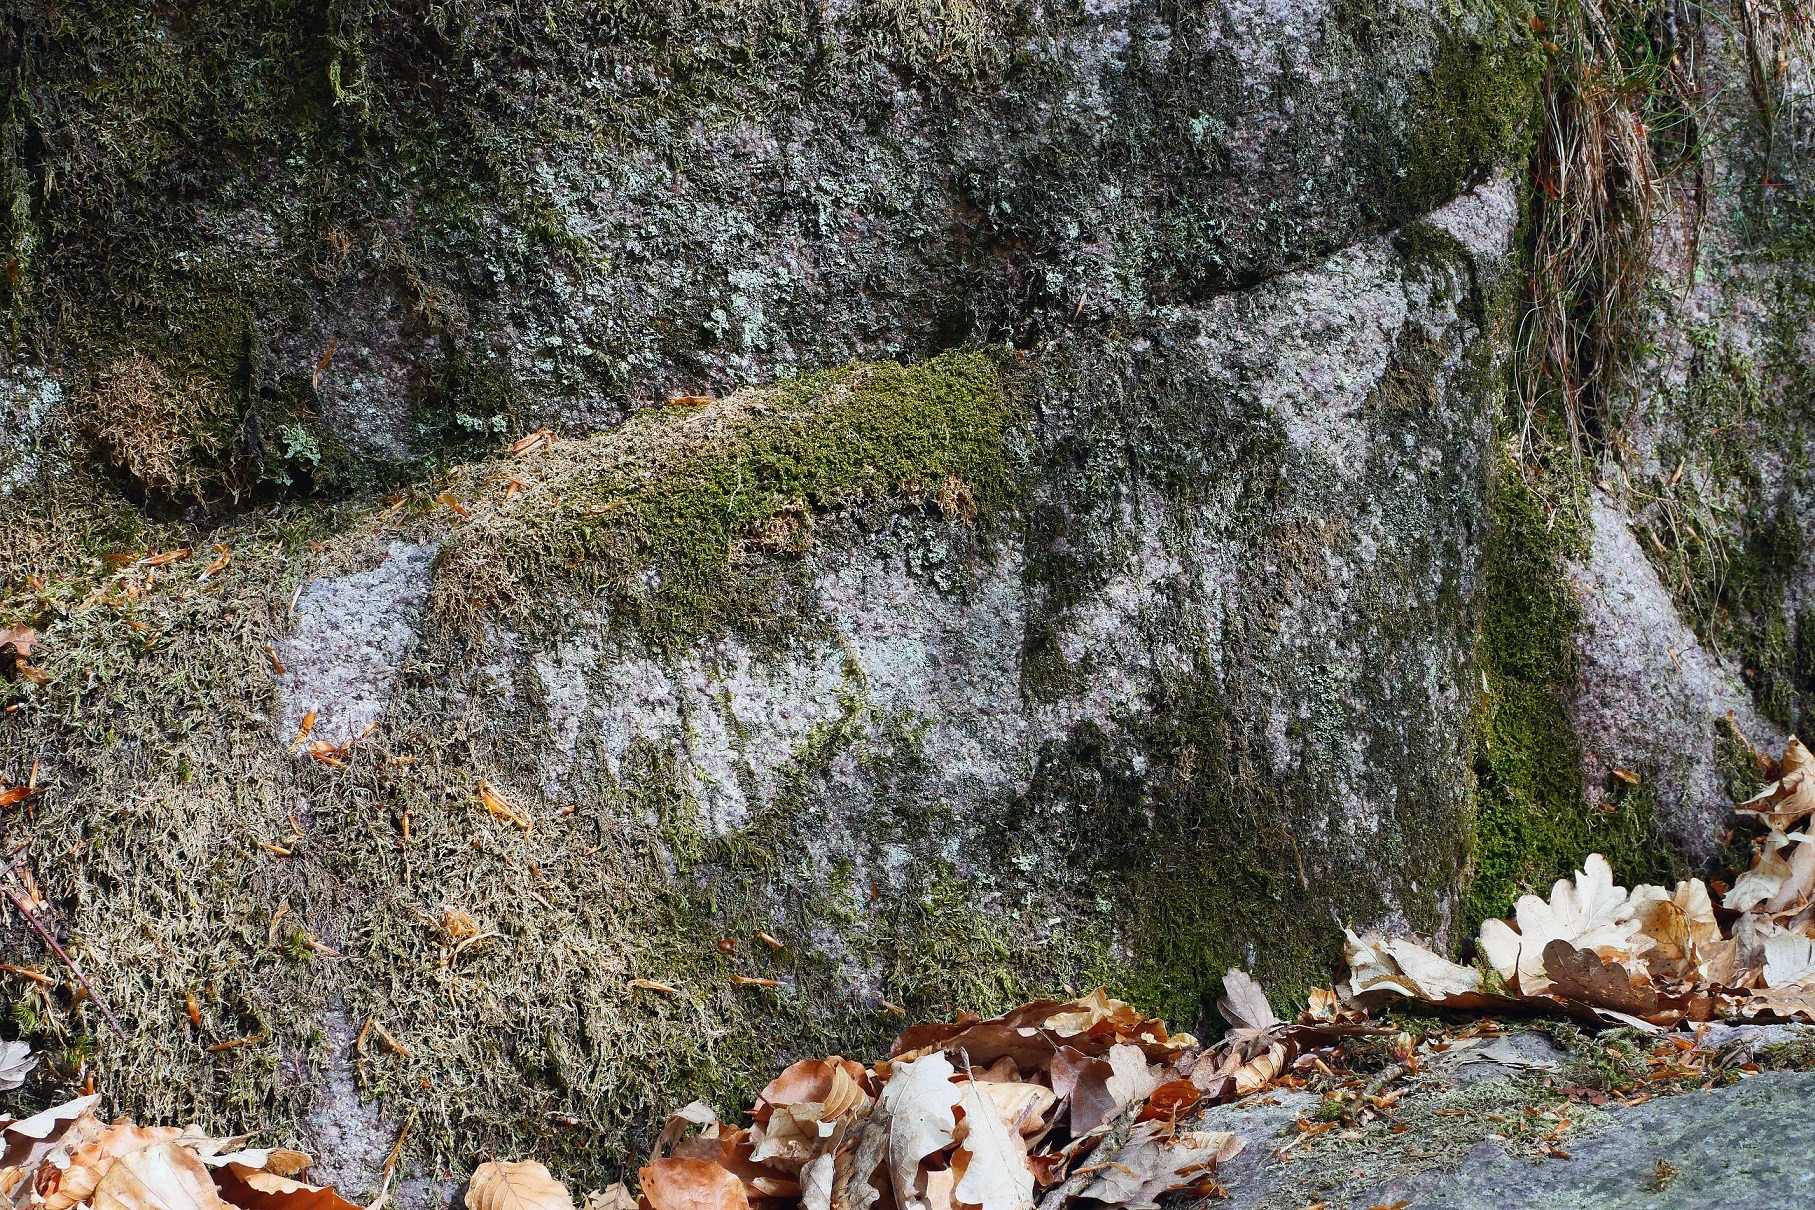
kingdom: Plantae
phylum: Marchantiophyta
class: Jungermanniopsida
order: Jungermanniales
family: Adelanthaceae
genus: Syzygiella
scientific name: Syzygiella autumnalis
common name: Høst-tandsvøb
